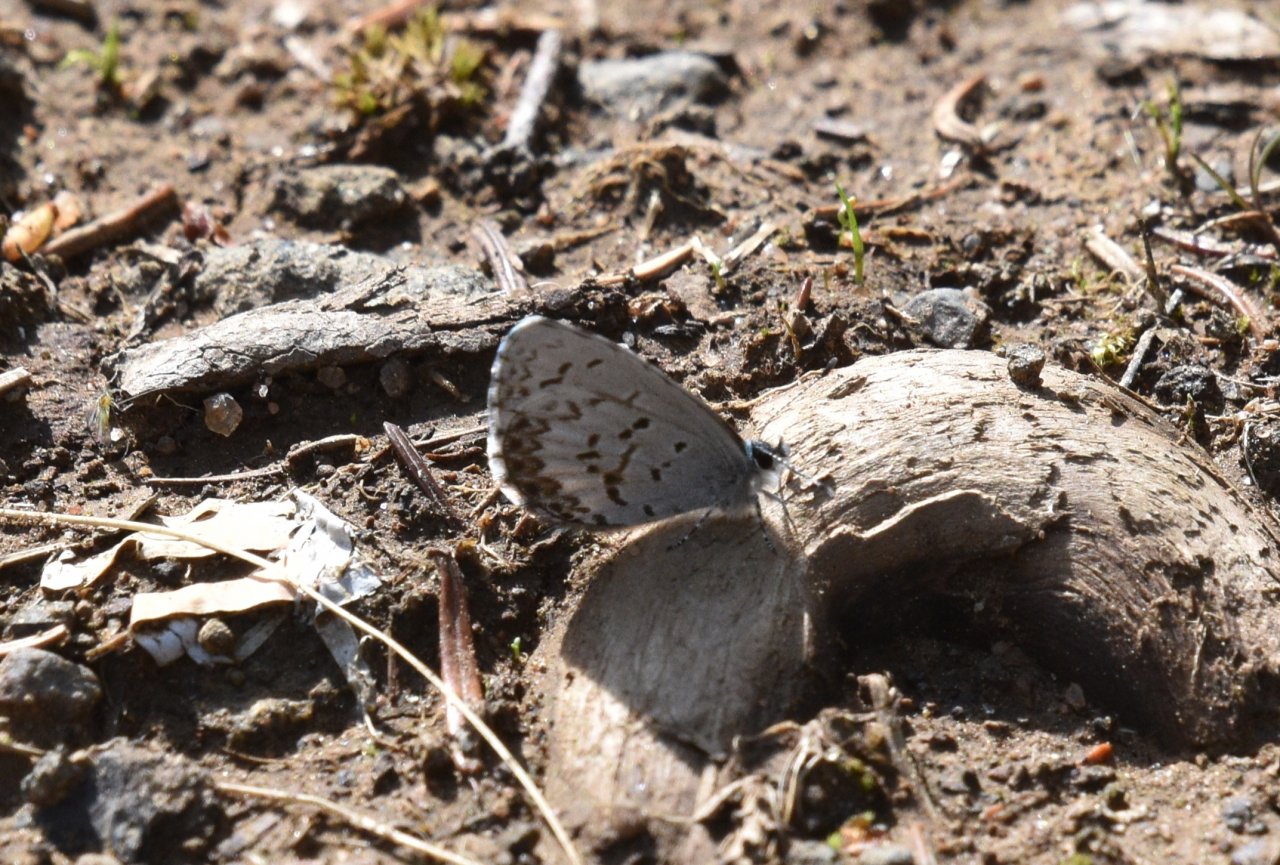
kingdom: Animalia
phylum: Arthropoda
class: Insecta
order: Lepidoptera
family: Lycaenidae
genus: Celastrina
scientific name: Celastrina lucia
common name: Northern Spring Azure
